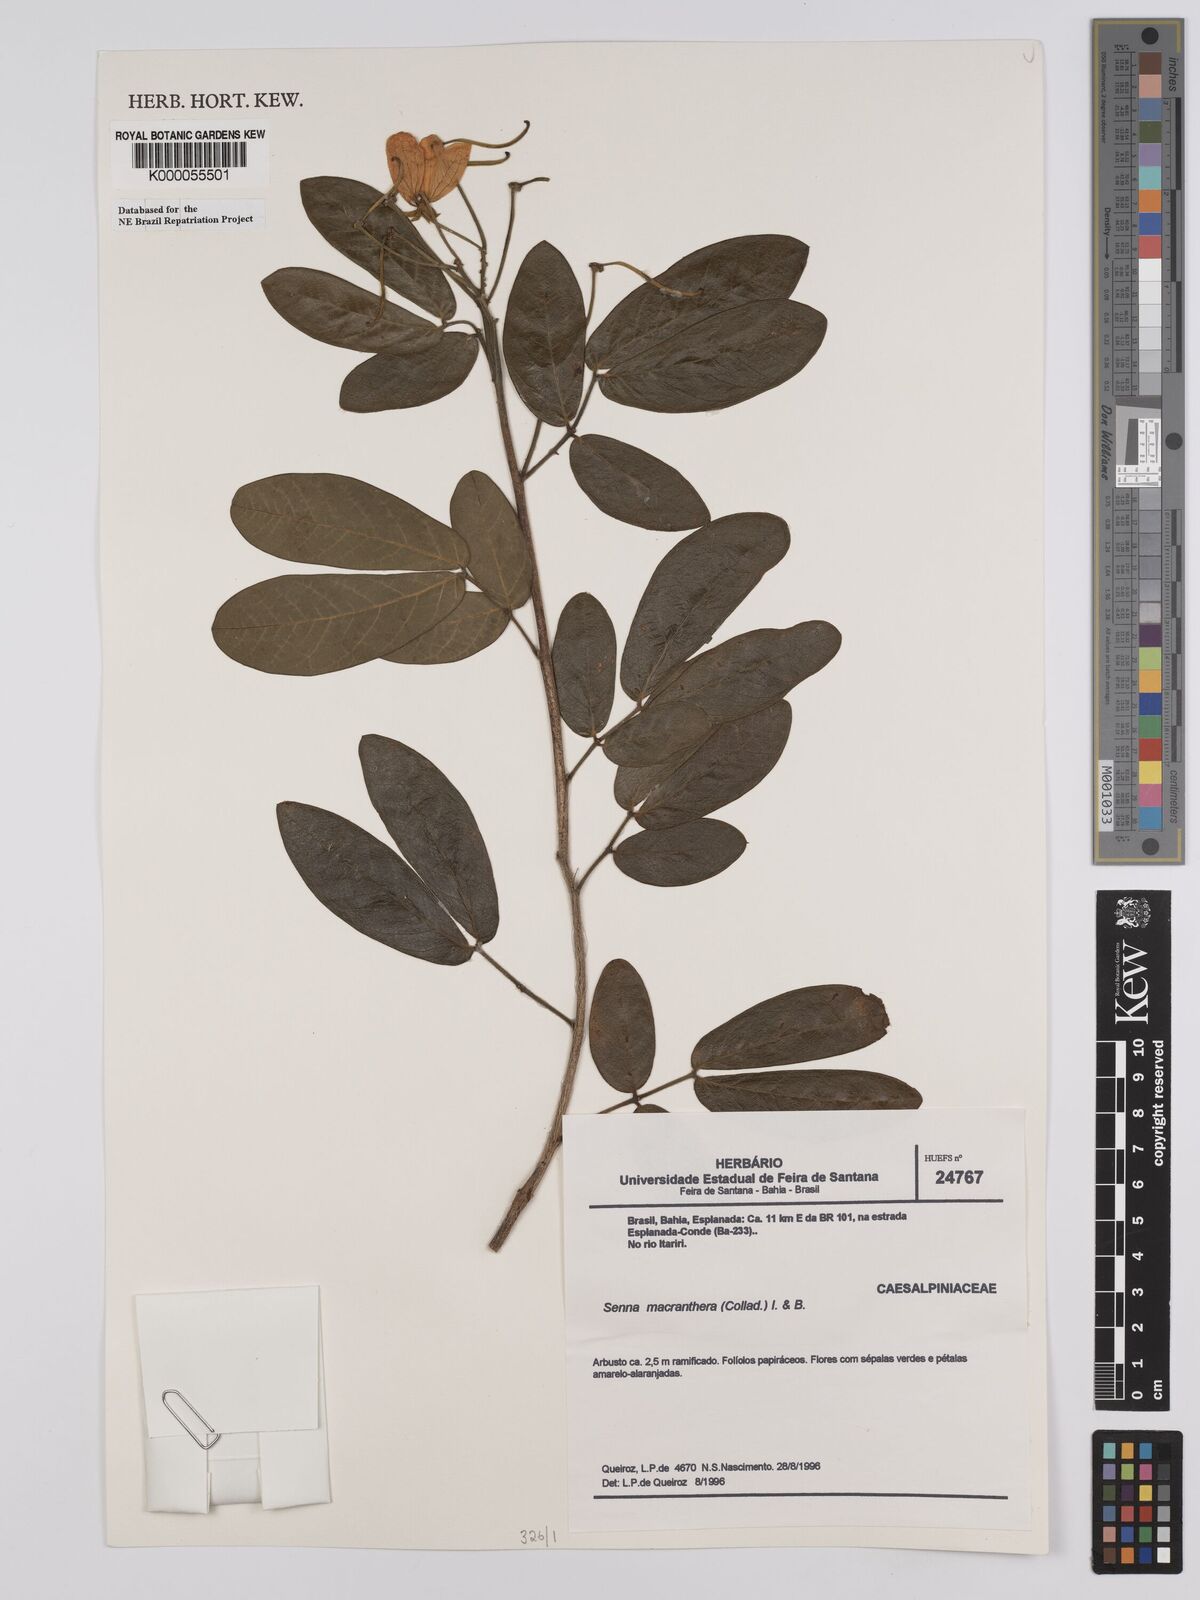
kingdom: Plantae
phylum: Tracheophyta
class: Magnoliopsida
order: Fabales
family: Fabaceae
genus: Senna
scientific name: Senna macranthera
